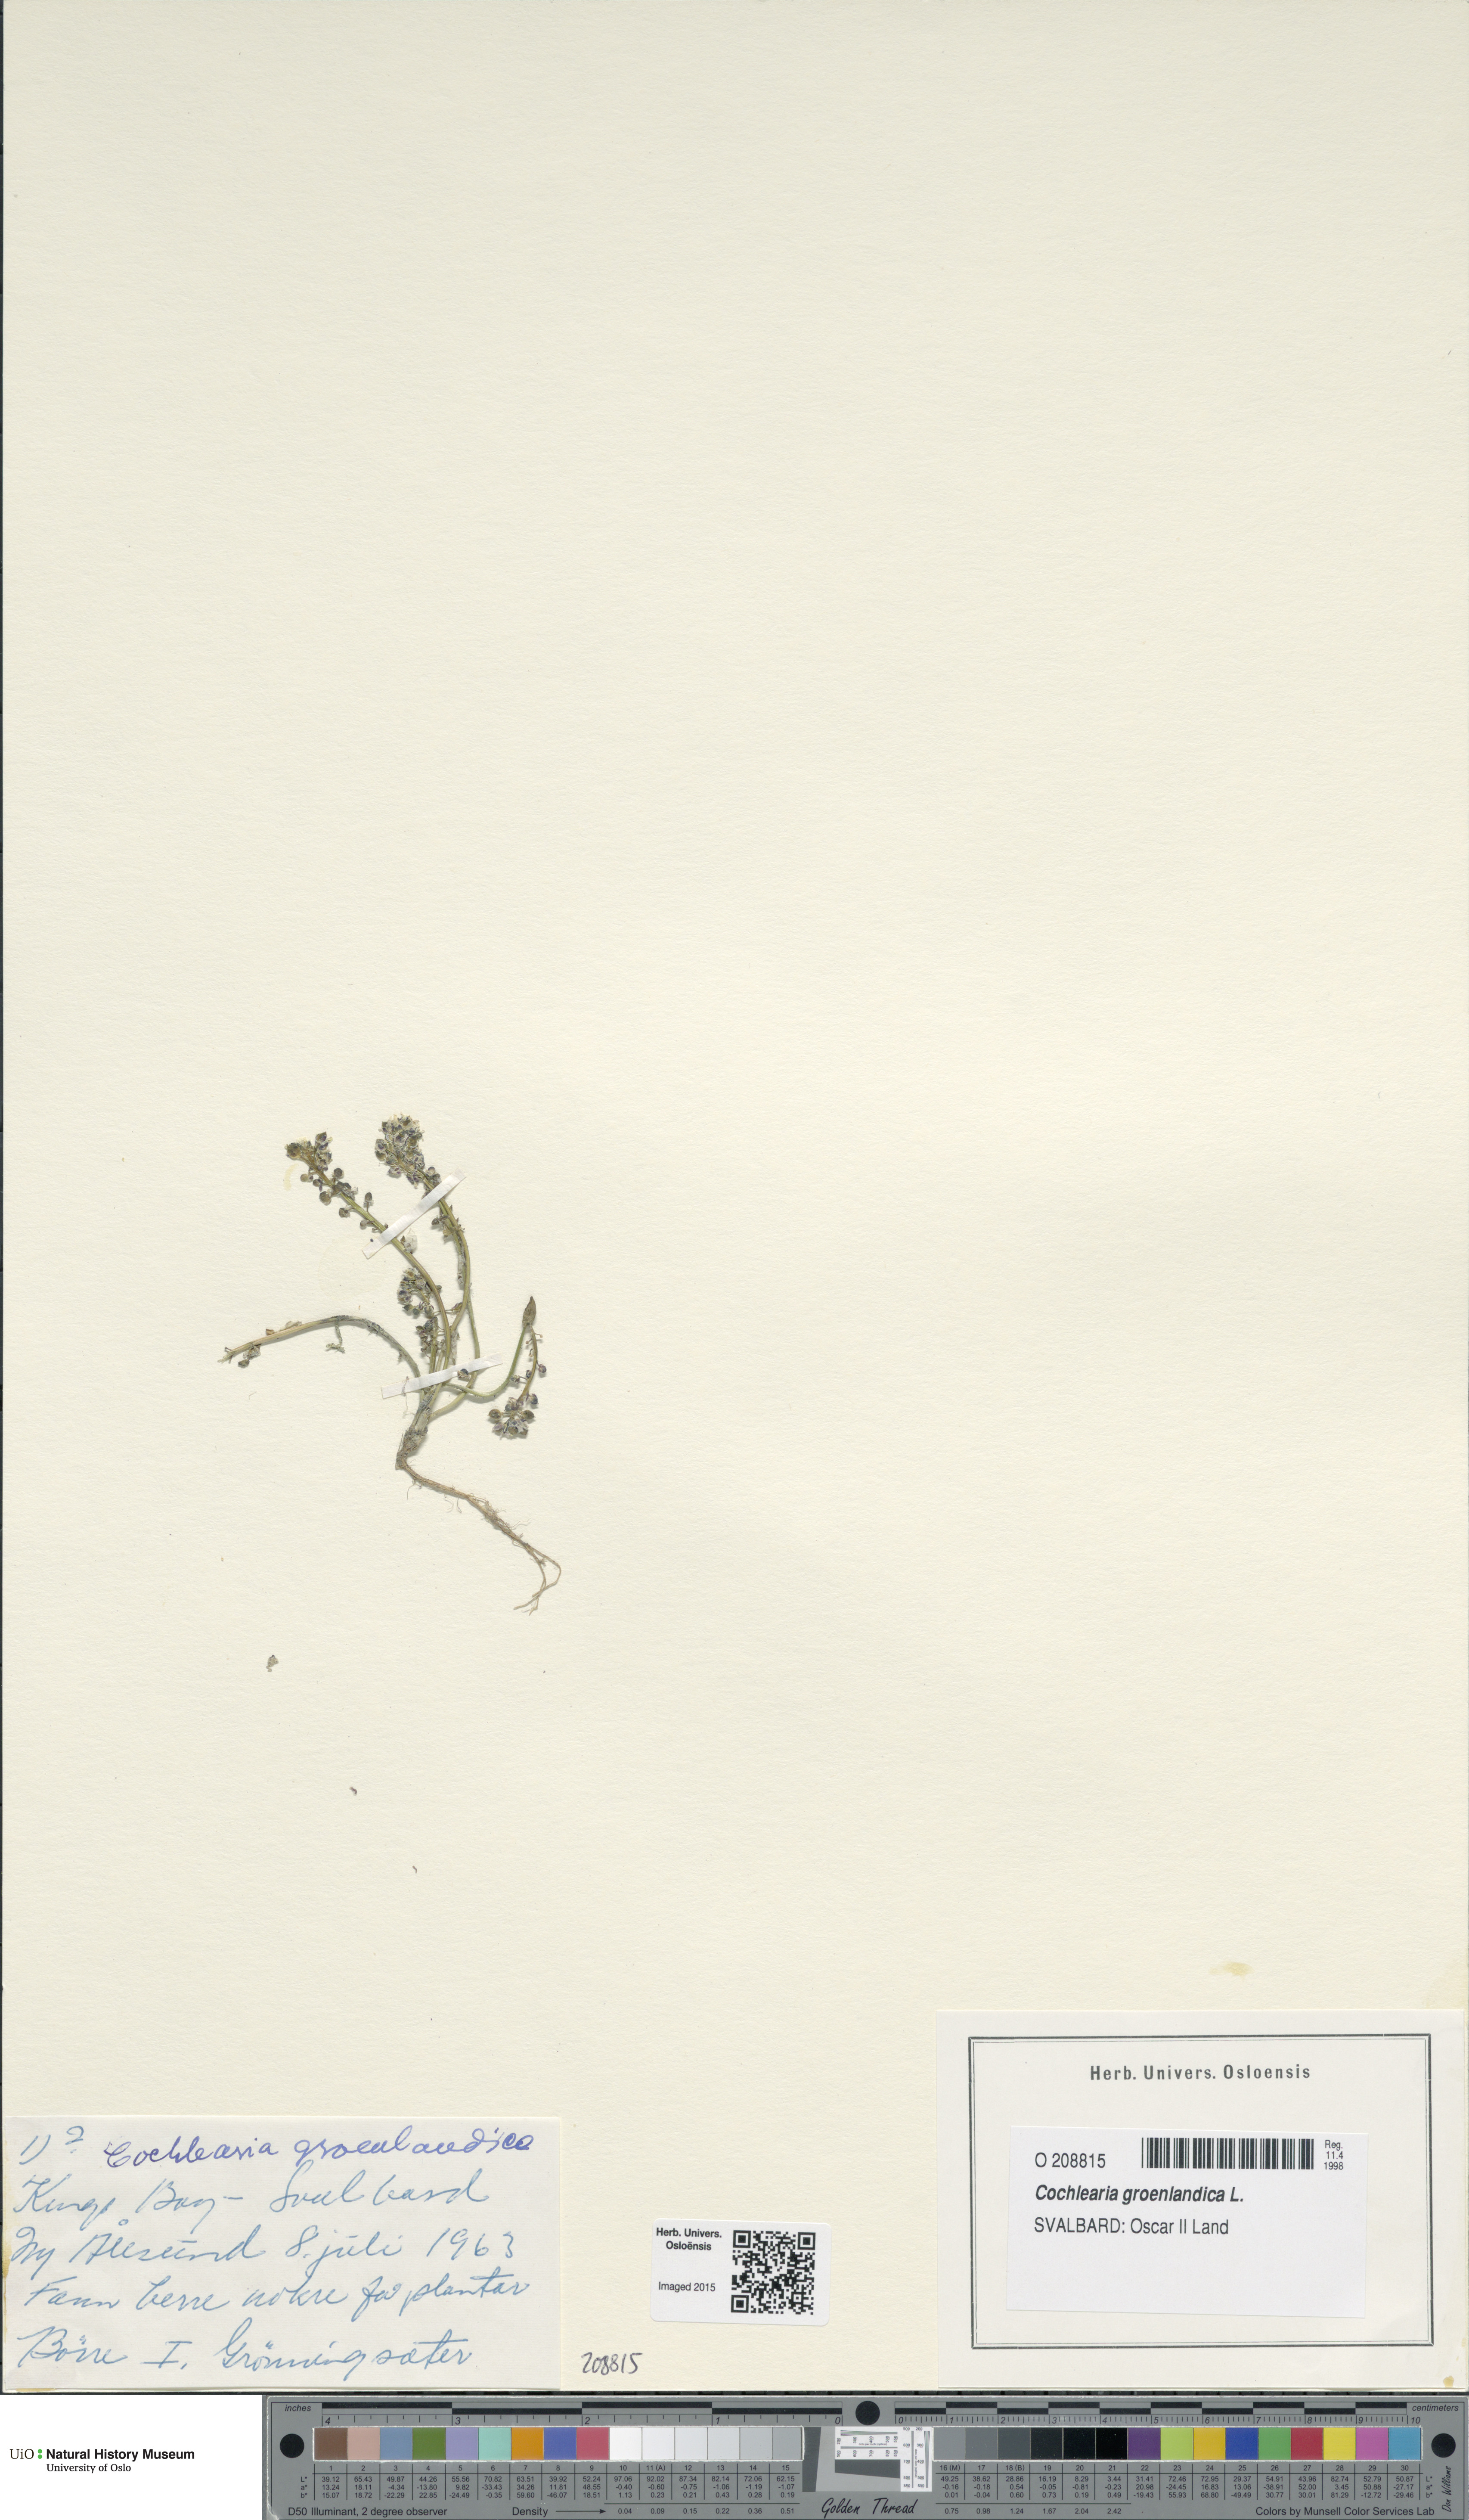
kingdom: Plantae
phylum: Tracheophyta
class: Magnoliopsida
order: Brassicales
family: Brassicaceae
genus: Cochlearia
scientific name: Cochlearia groenlandica
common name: Danish scurvygrass
